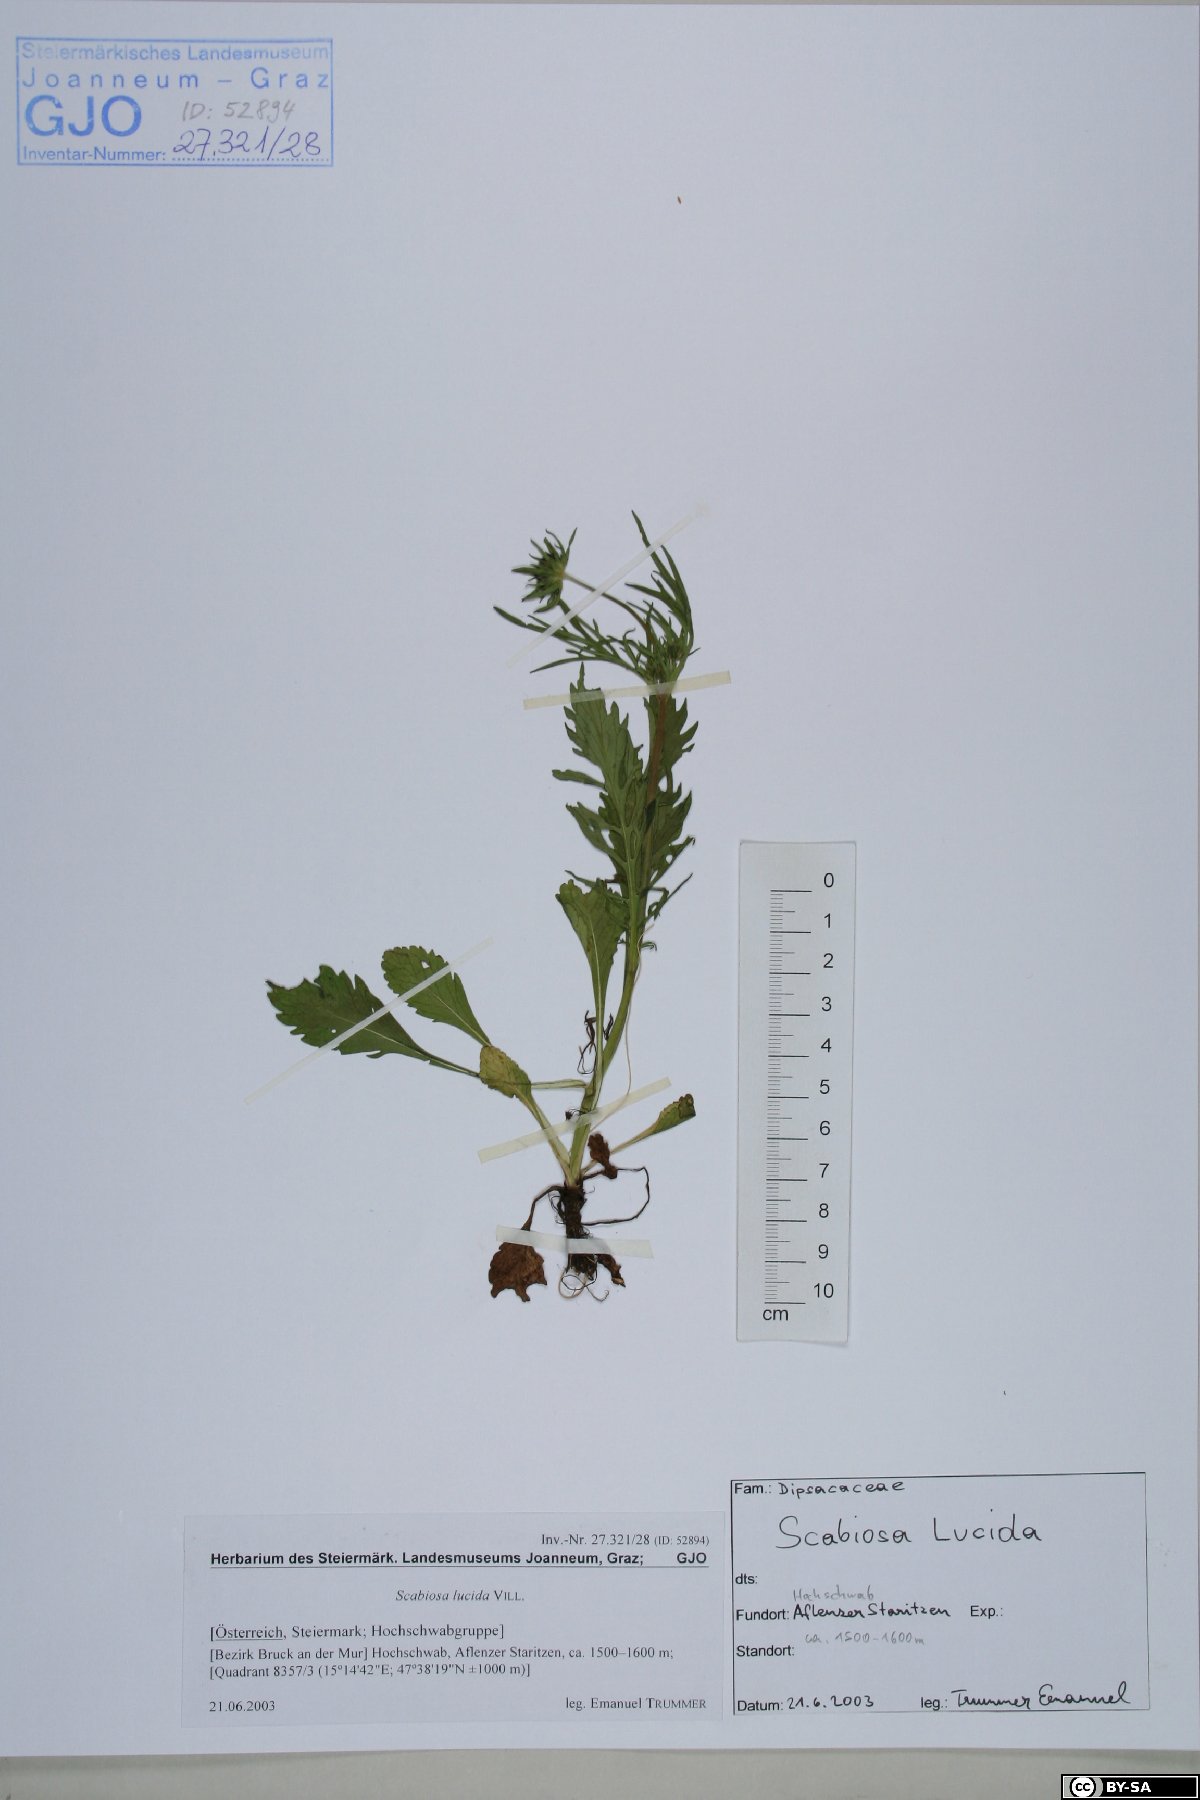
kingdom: Plantae
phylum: Tracheophyta
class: Magnoliopsida
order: Dipsacales
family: Caprifoliaceae
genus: Scabiosa
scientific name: Scabiosa lucida
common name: Shining scabious
